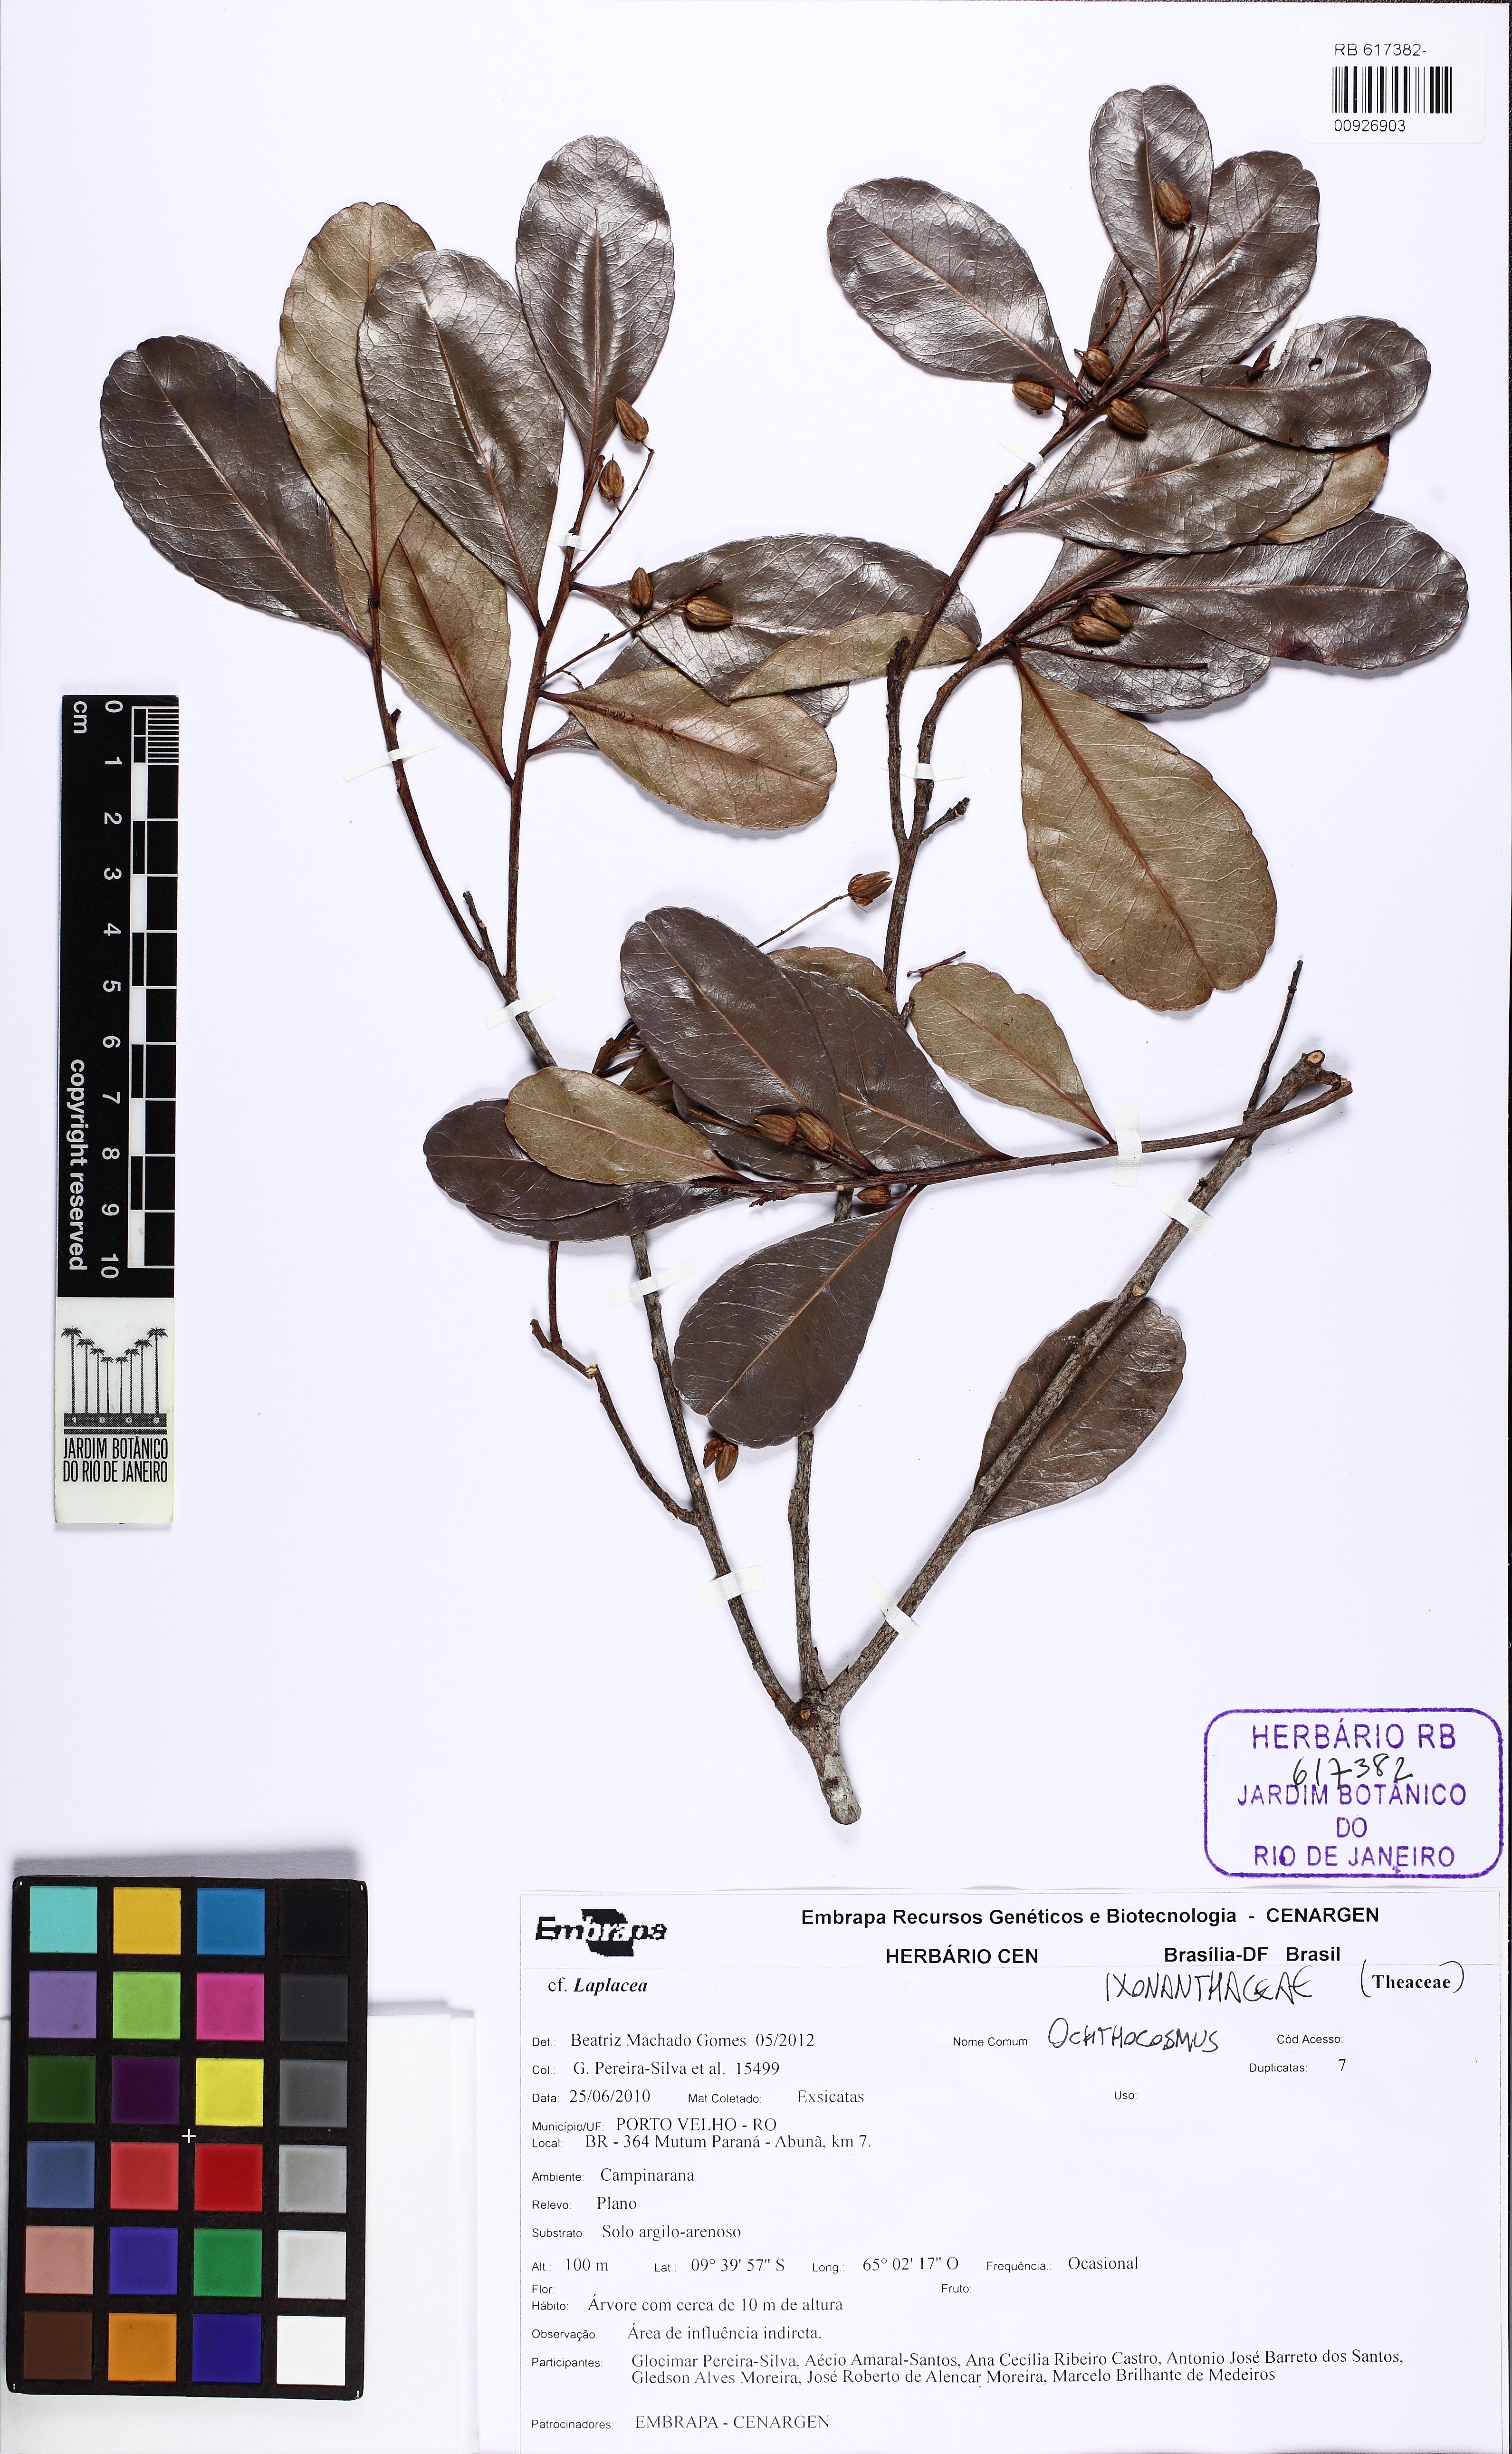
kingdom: Plantae
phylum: Tracheophyta
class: Magnoliopsida
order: Malpighiales
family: Ixonanthaceae
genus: Ochthocosmus
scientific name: Ochthocosmus barrae
